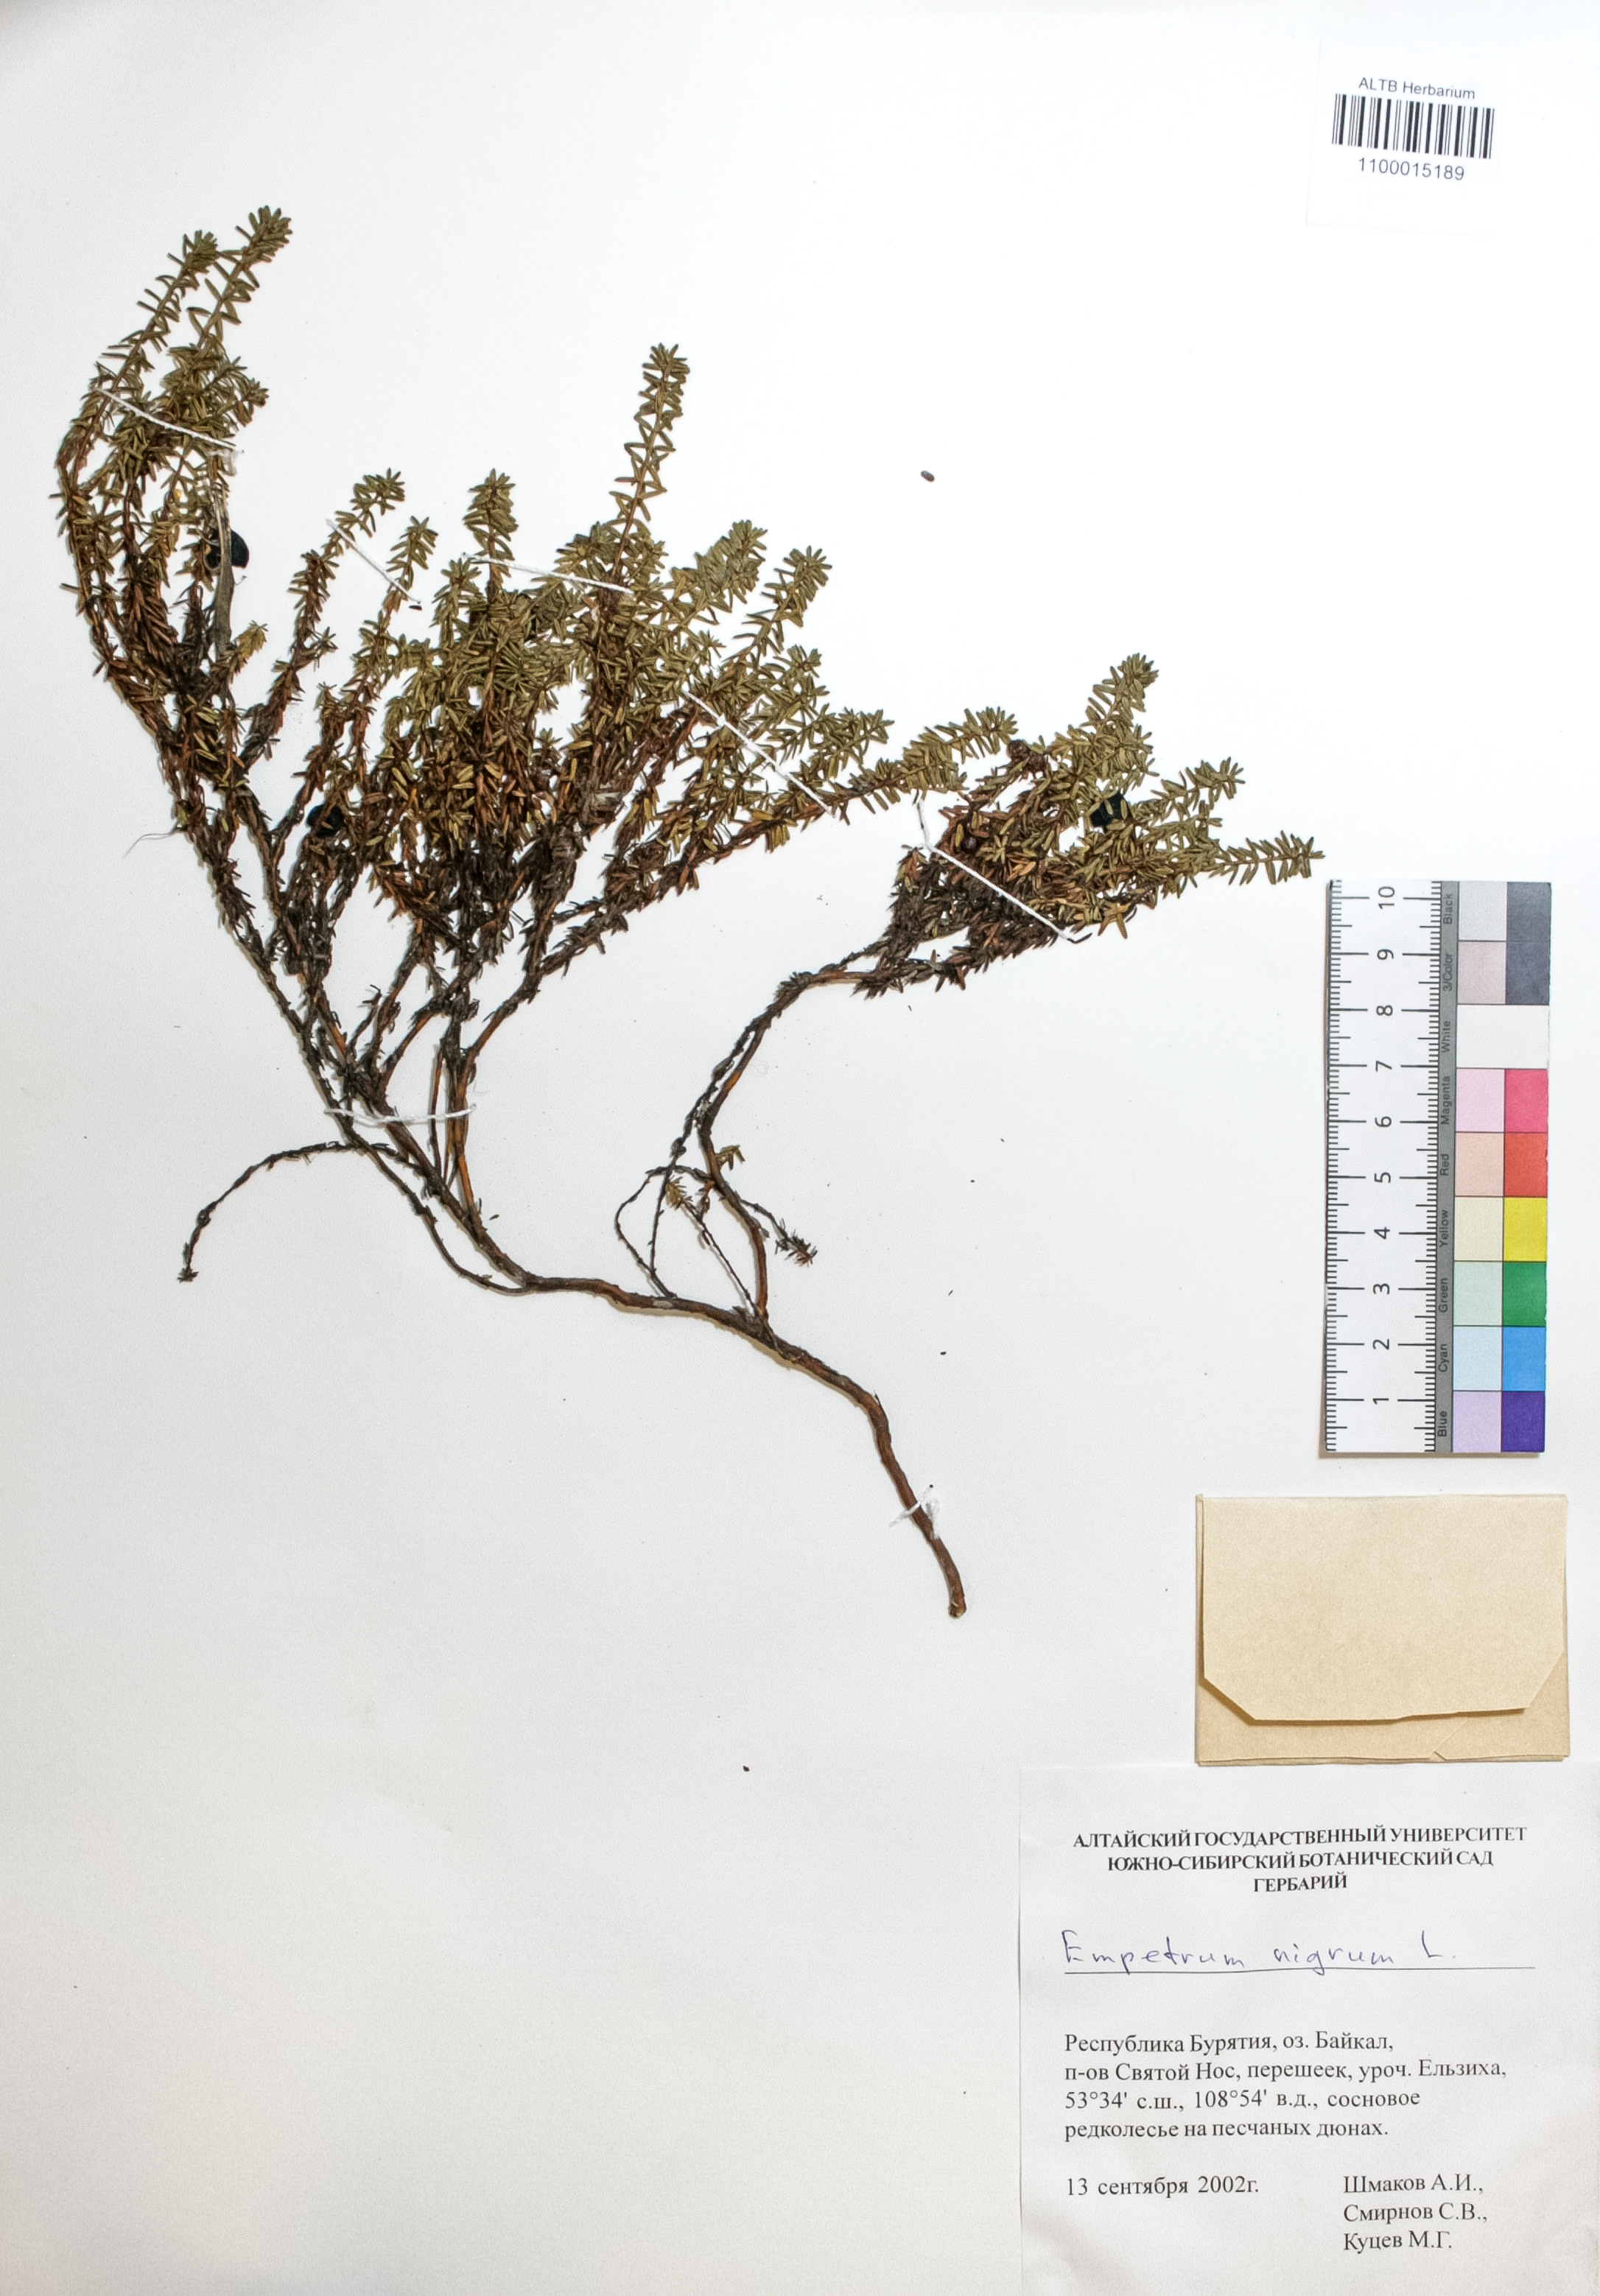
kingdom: Plantae
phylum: Tracheophyta
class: Magnoliopsida
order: Ericales
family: Ericaceae
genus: Empetrum
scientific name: Empetrum nigrum
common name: Black crowberry
